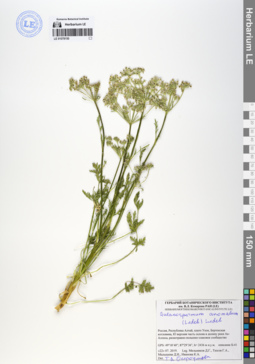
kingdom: Plantae
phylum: Tracheophyta
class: Magnoliopsida
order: Apiales
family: Apiaceae
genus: Aulacospermum
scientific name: Aulacospermum anomalum
